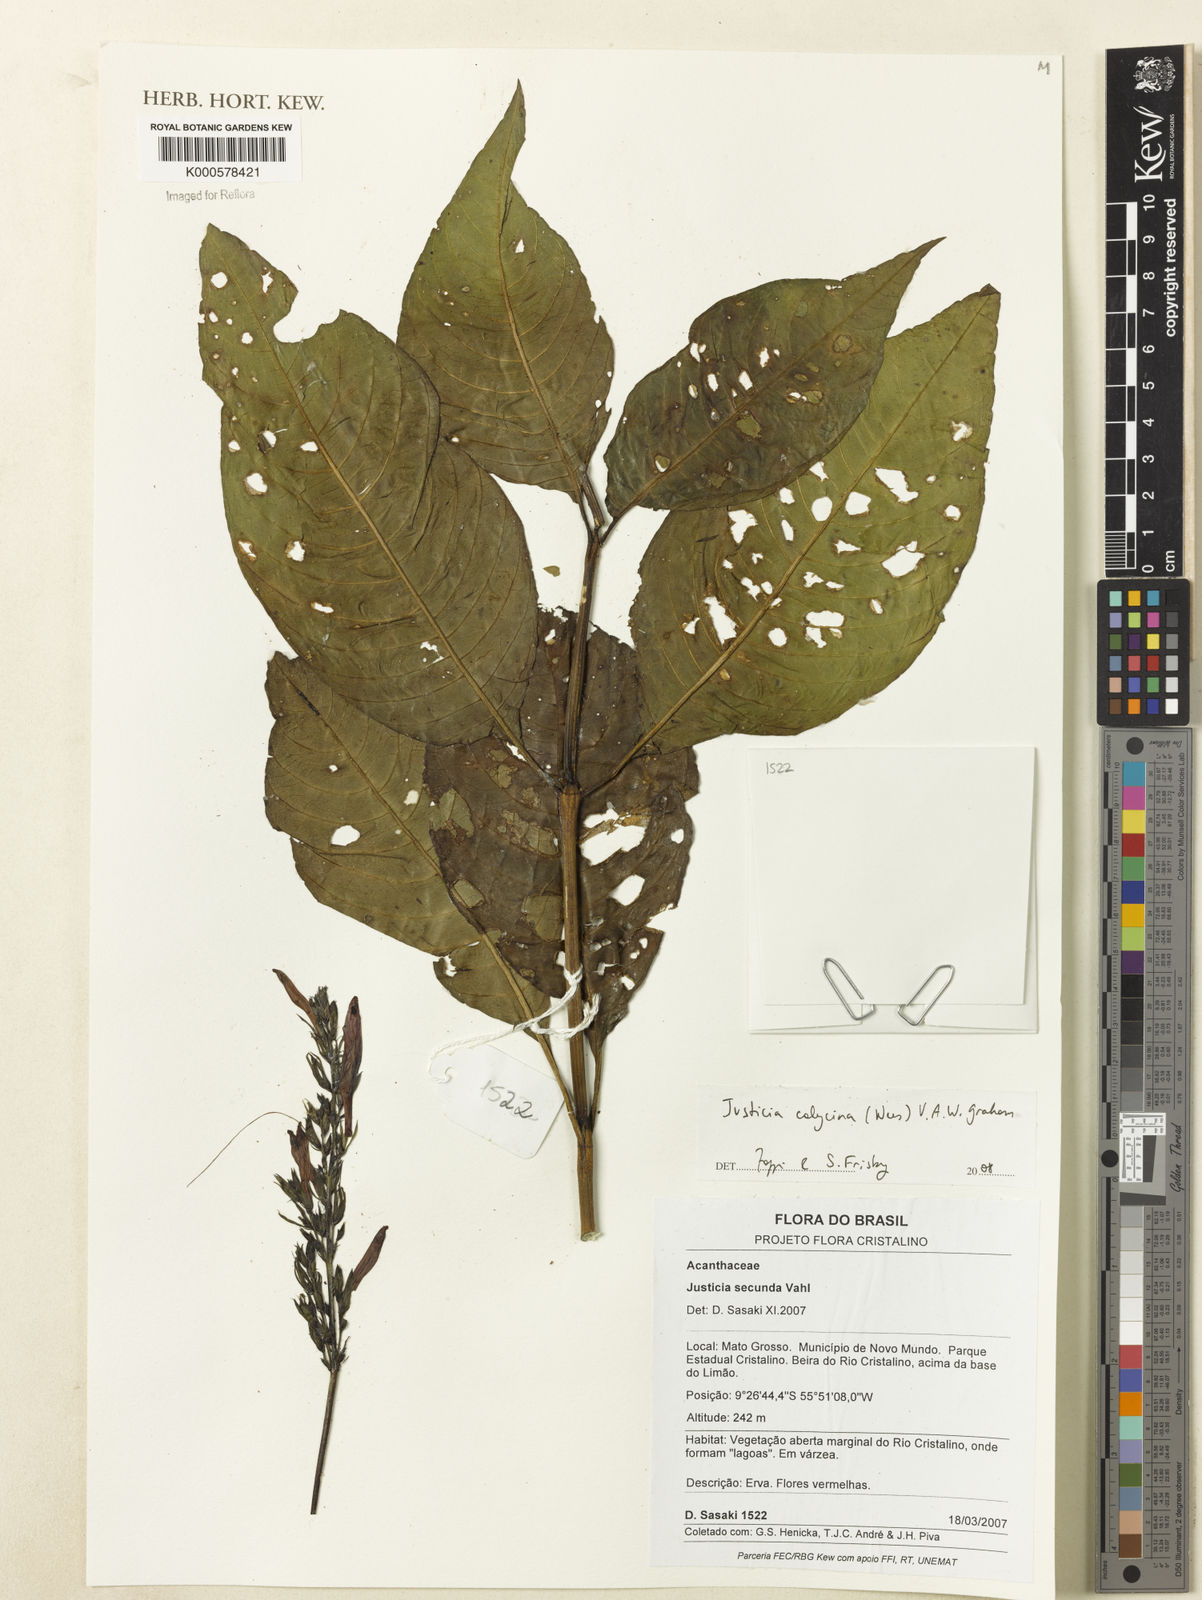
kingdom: Plantae
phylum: Tracheophyta
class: Magnoliopsida
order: Lamiales
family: Acanthaceae
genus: Dianthera
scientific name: Dianthera calycina
